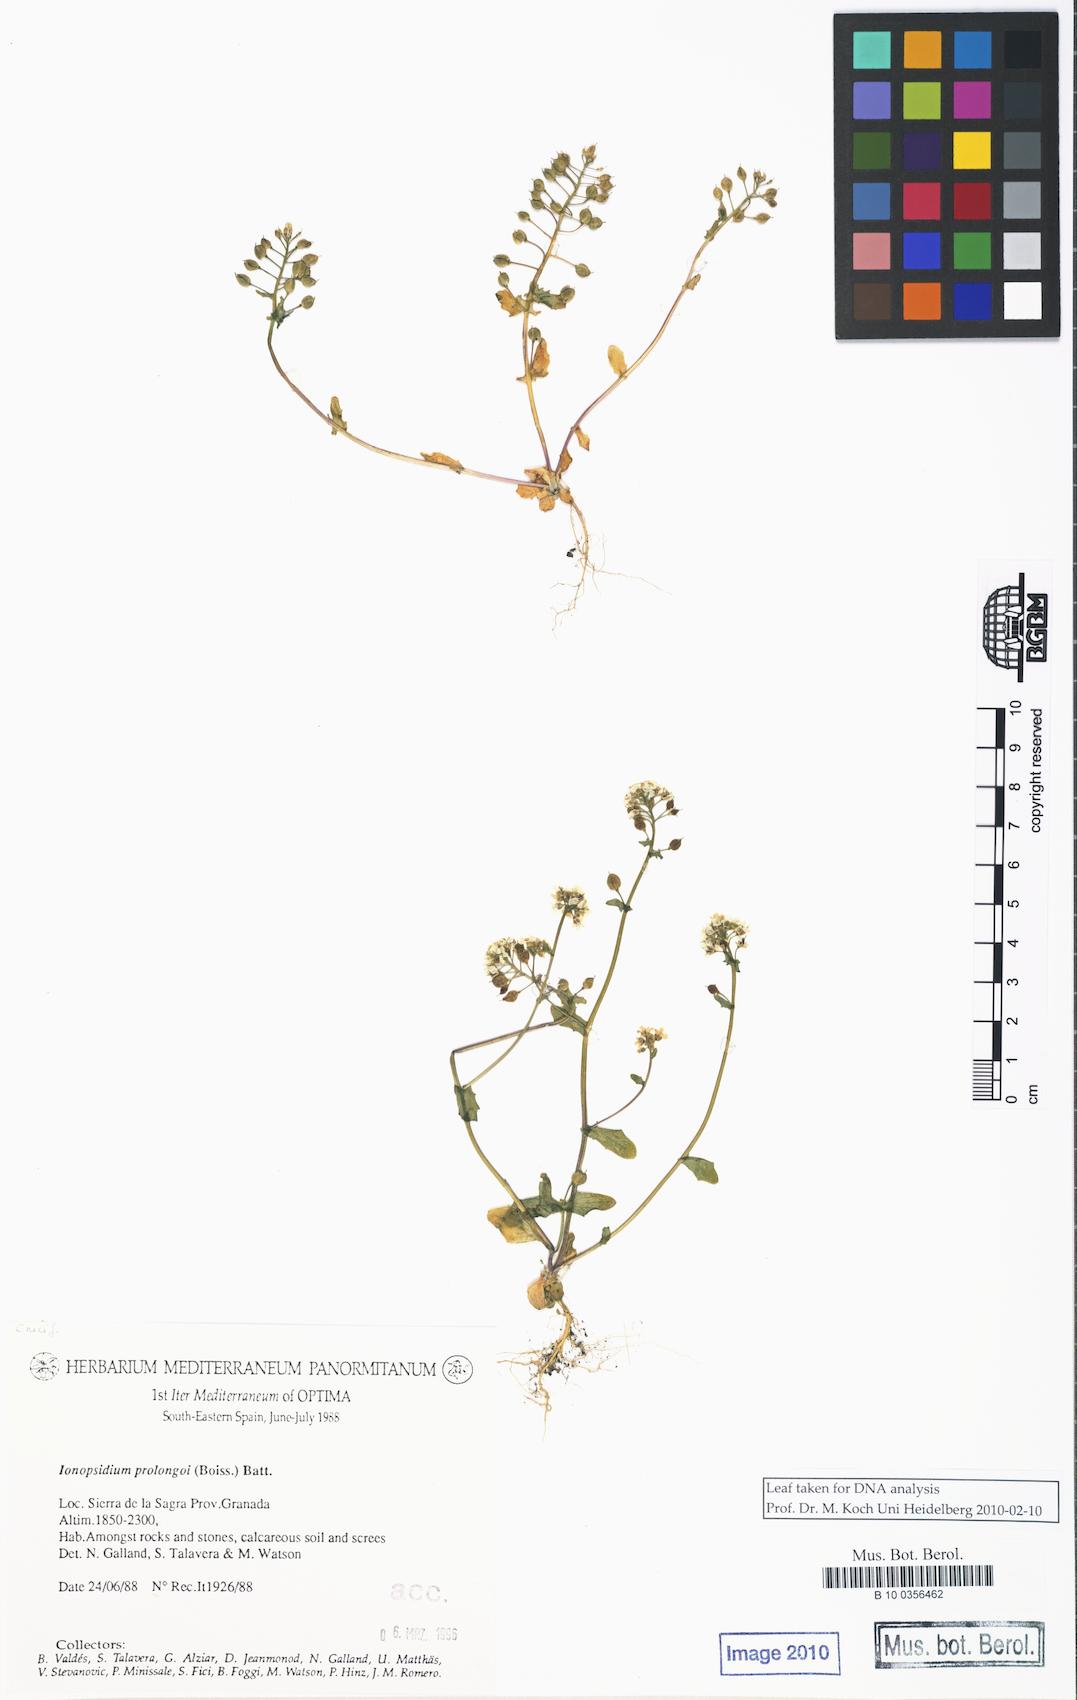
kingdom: Plantae
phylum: Tracheophyta
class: Magnoliopsida
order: Brassicales
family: Brassicaceae
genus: Ionopsidium
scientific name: Ionopsidium prolongoi
